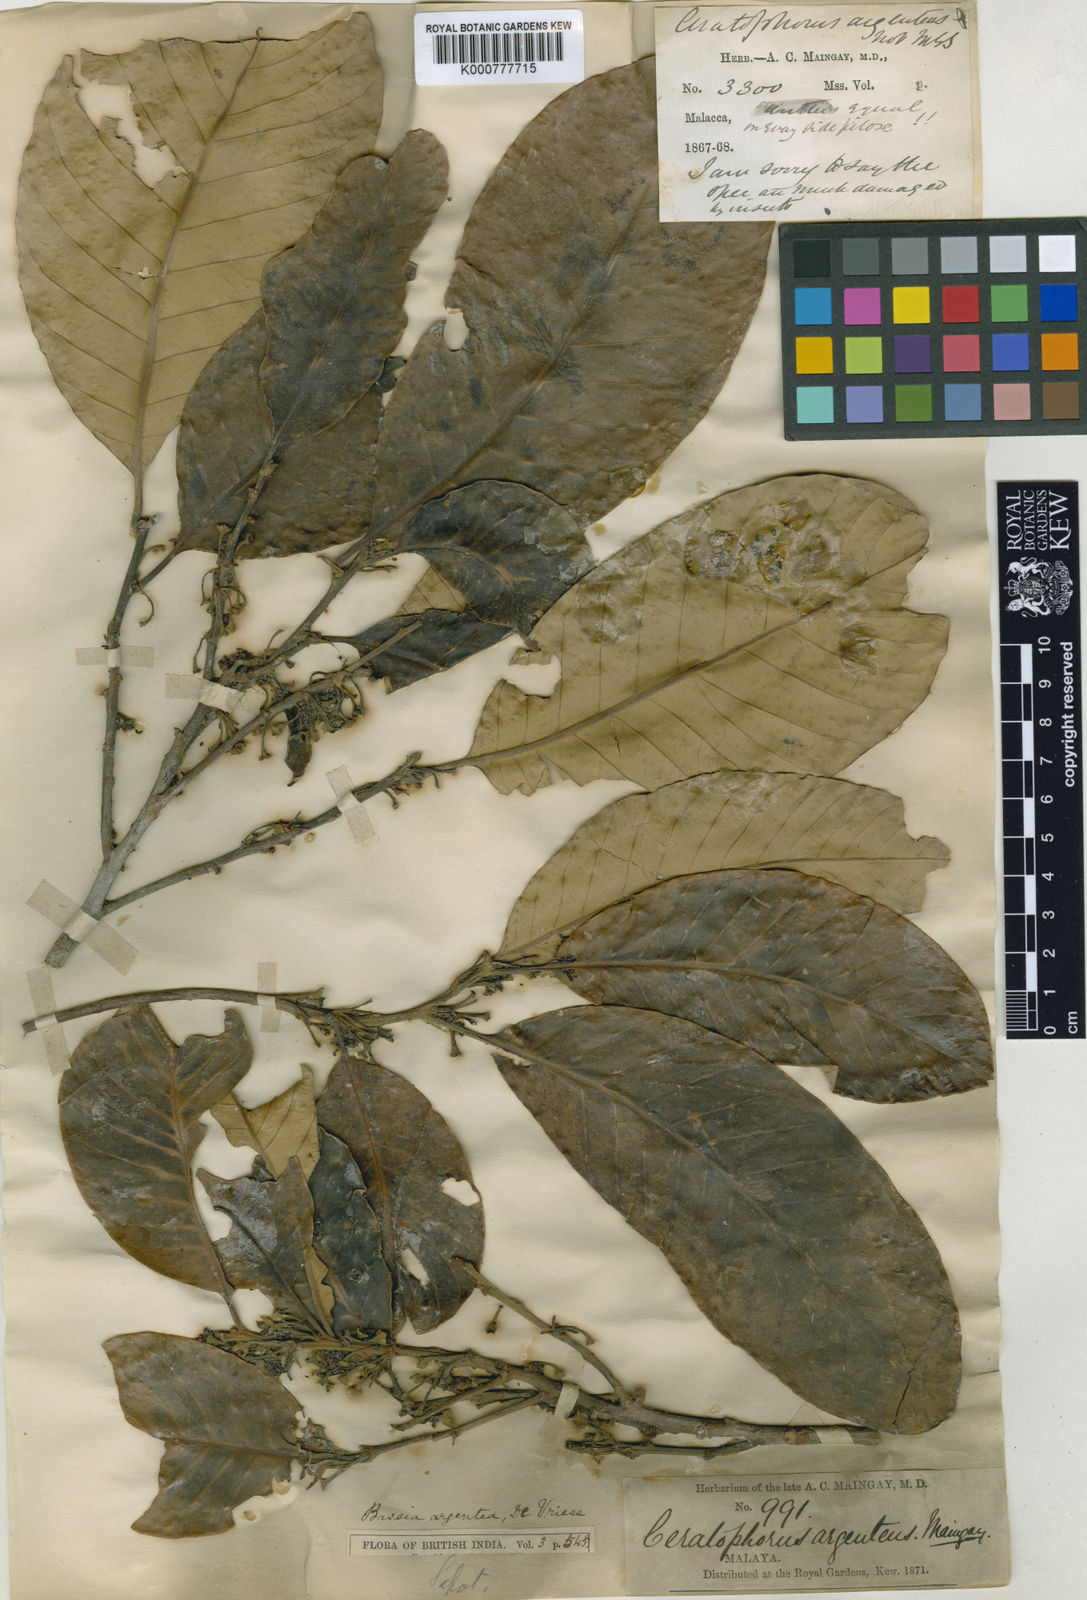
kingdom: Plantae
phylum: Tracheophyta
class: Magnoliopsida
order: Ericales
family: Sapotaceae
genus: Madhuca
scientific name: Madhuca sericea
